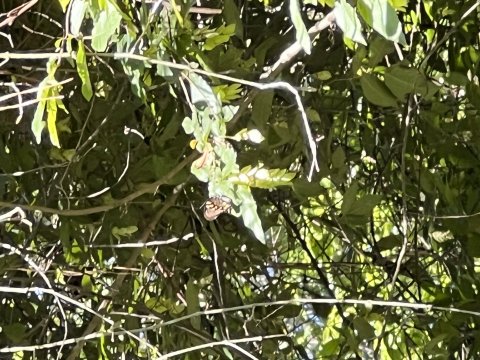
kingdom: Animalia
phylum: Arthropoda
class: Insecta
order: Lepidoptera
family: Papilionidae
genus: Battus
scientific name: Battus philenor
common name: Pipevine Swallowtail
